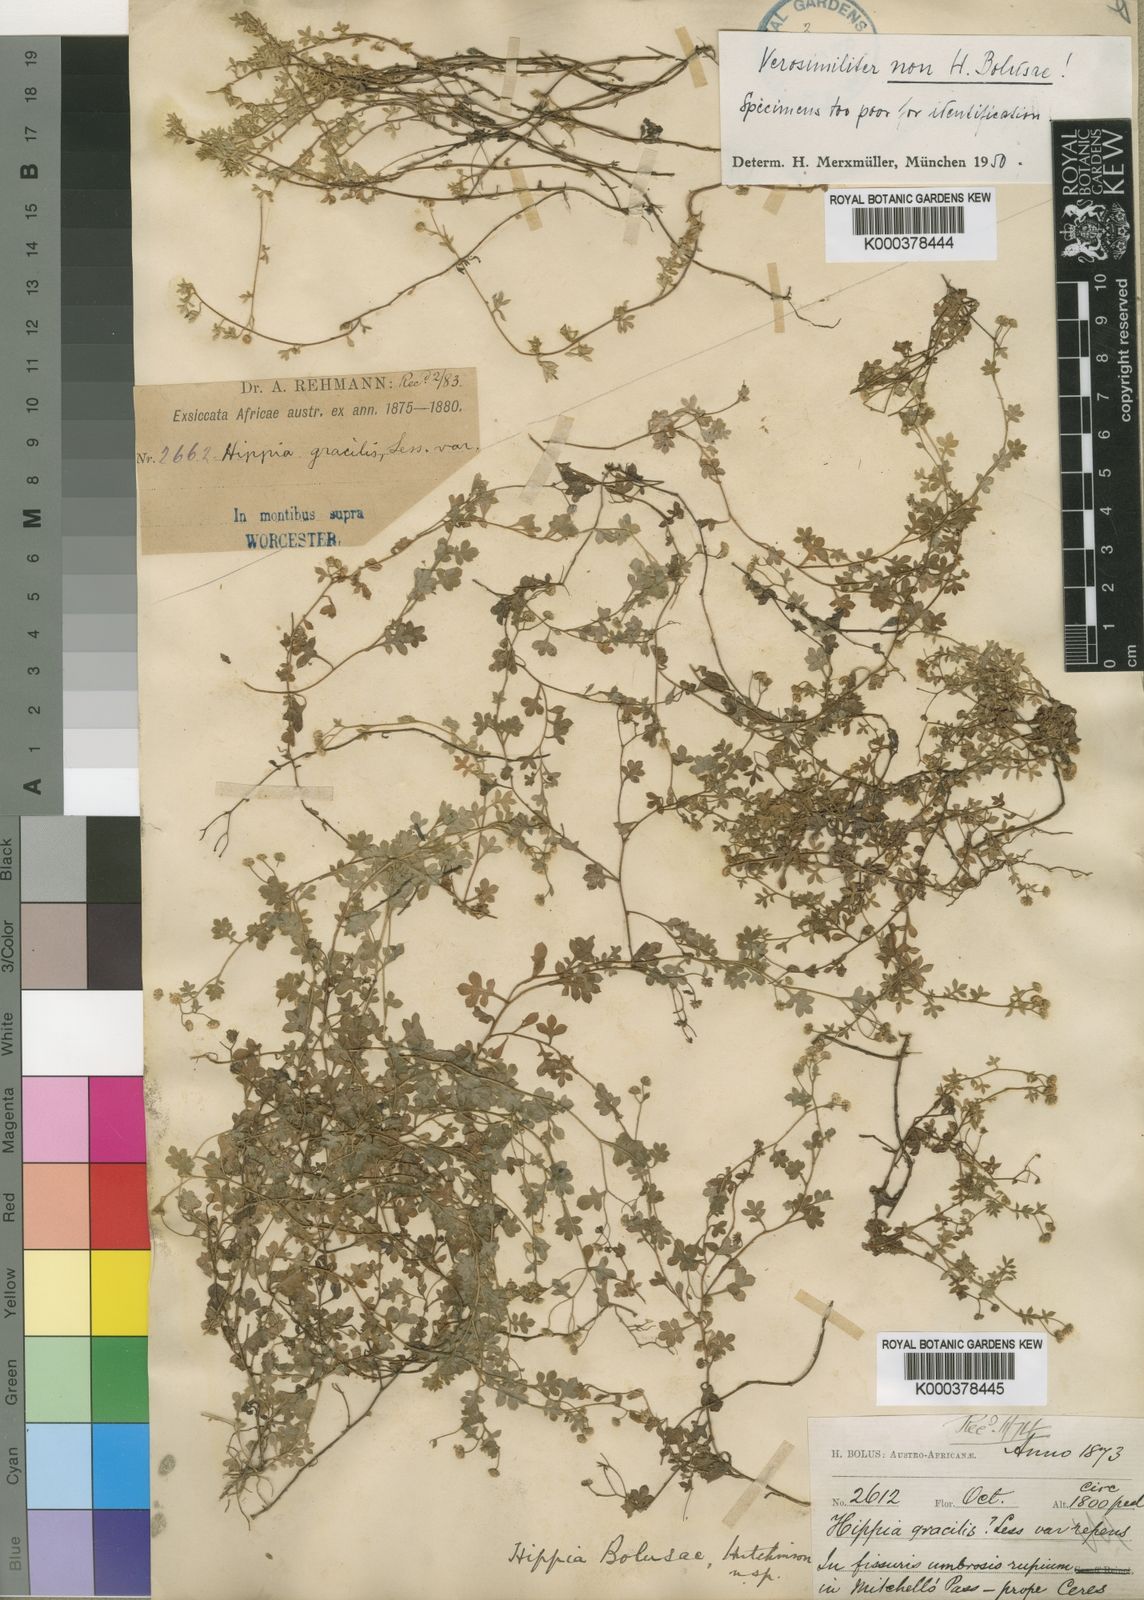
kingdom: Plantae
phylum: Tracheophyta
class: Magnoliopsida
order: Asterales
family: Asteraceae
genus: Hippia
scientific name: Hippia bolusae
